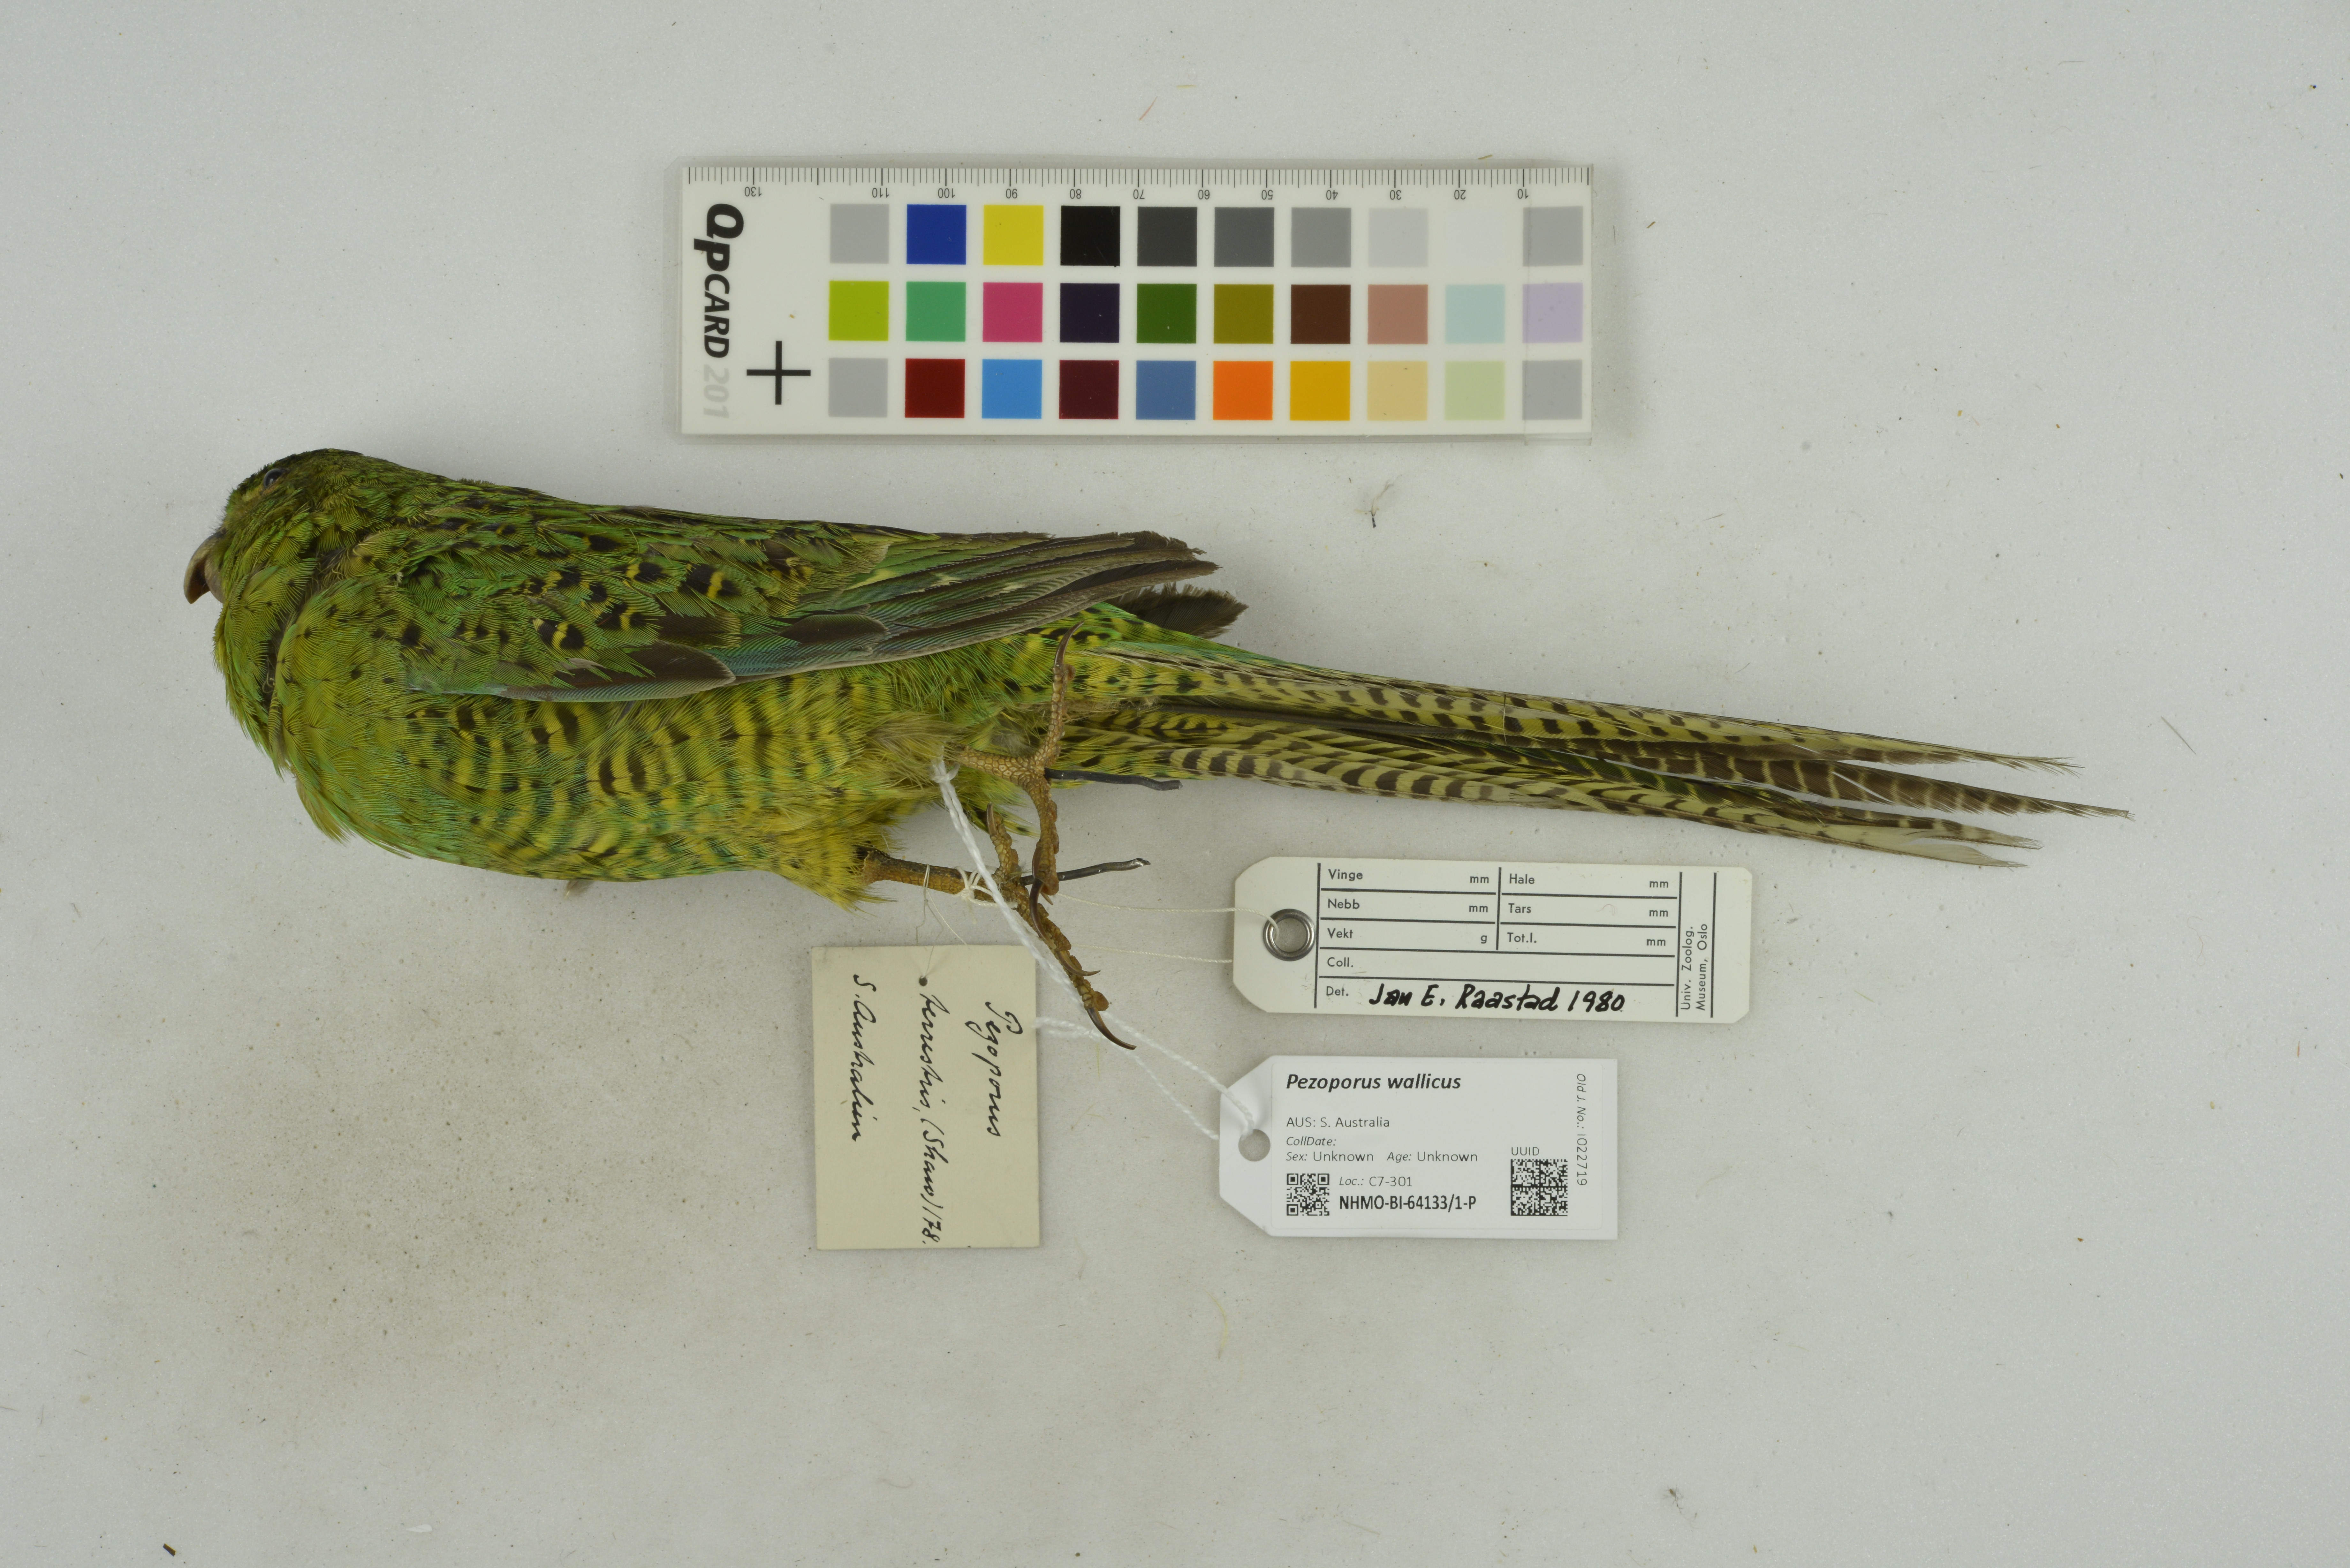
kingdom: Animalia
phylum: Chordata
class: Aves
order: Psittaciformes
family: Psittacidae
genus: Pezoporus
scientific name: Pezoporus wallicus
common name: Ground parrot
